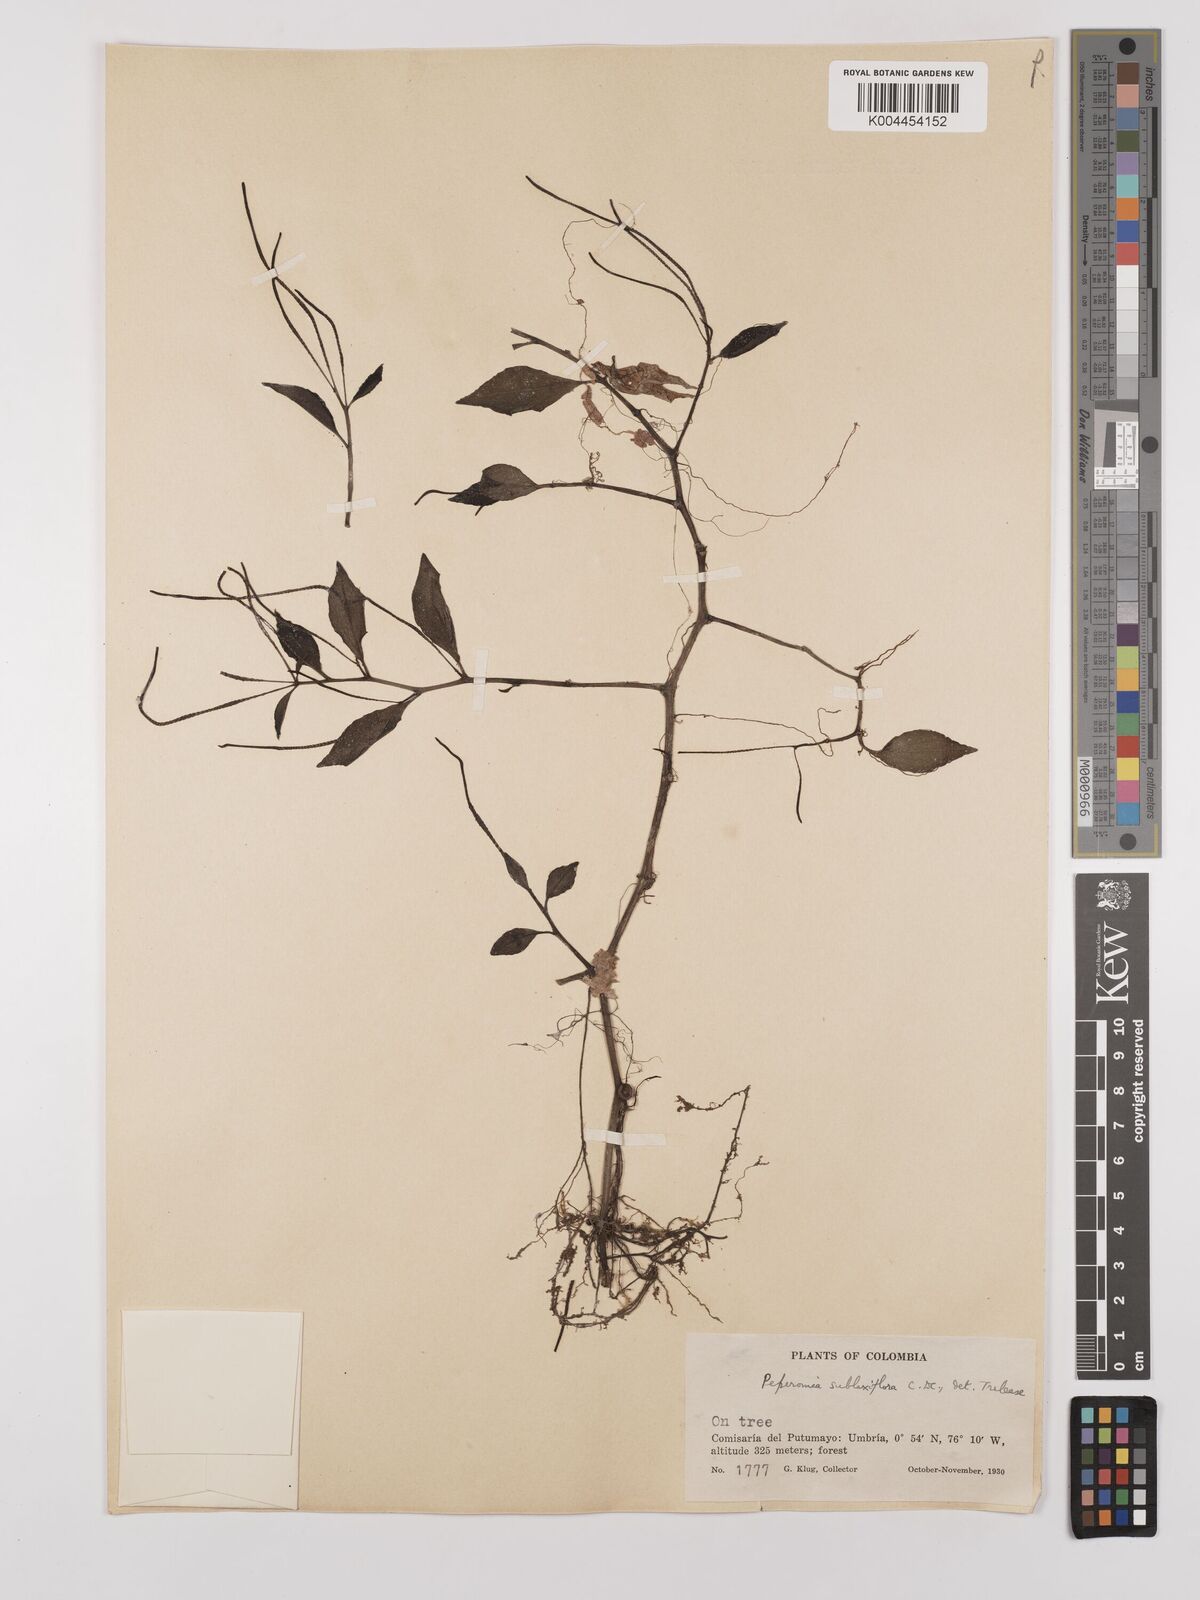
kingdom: Plantae
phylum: Tracheophyta
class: Magnoliopsida
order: Piperales
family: Piperaceae
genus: Peperomia
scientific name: Peperomia sublaxiflora
